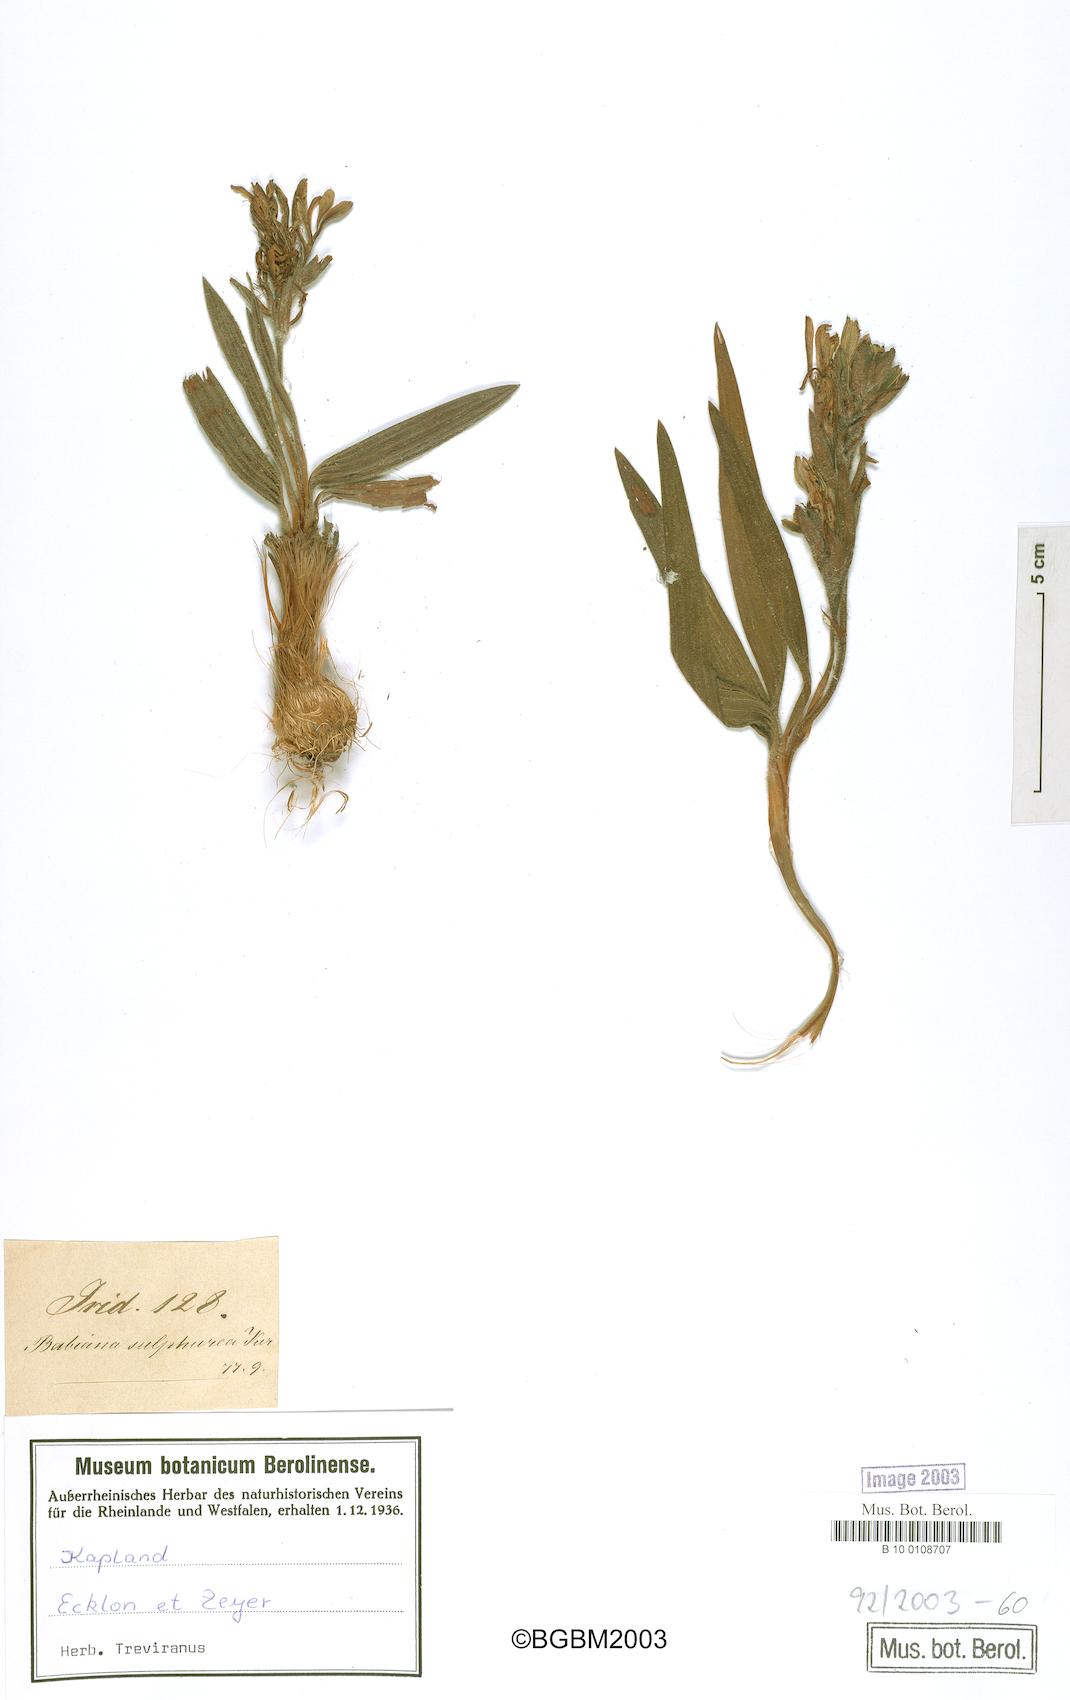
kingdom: Plantae
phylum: Tracheophyta
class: Liliopsida
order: Asparagales
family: Iridaceae
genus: Gladiolus
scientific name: Gladiolus sulphureus
